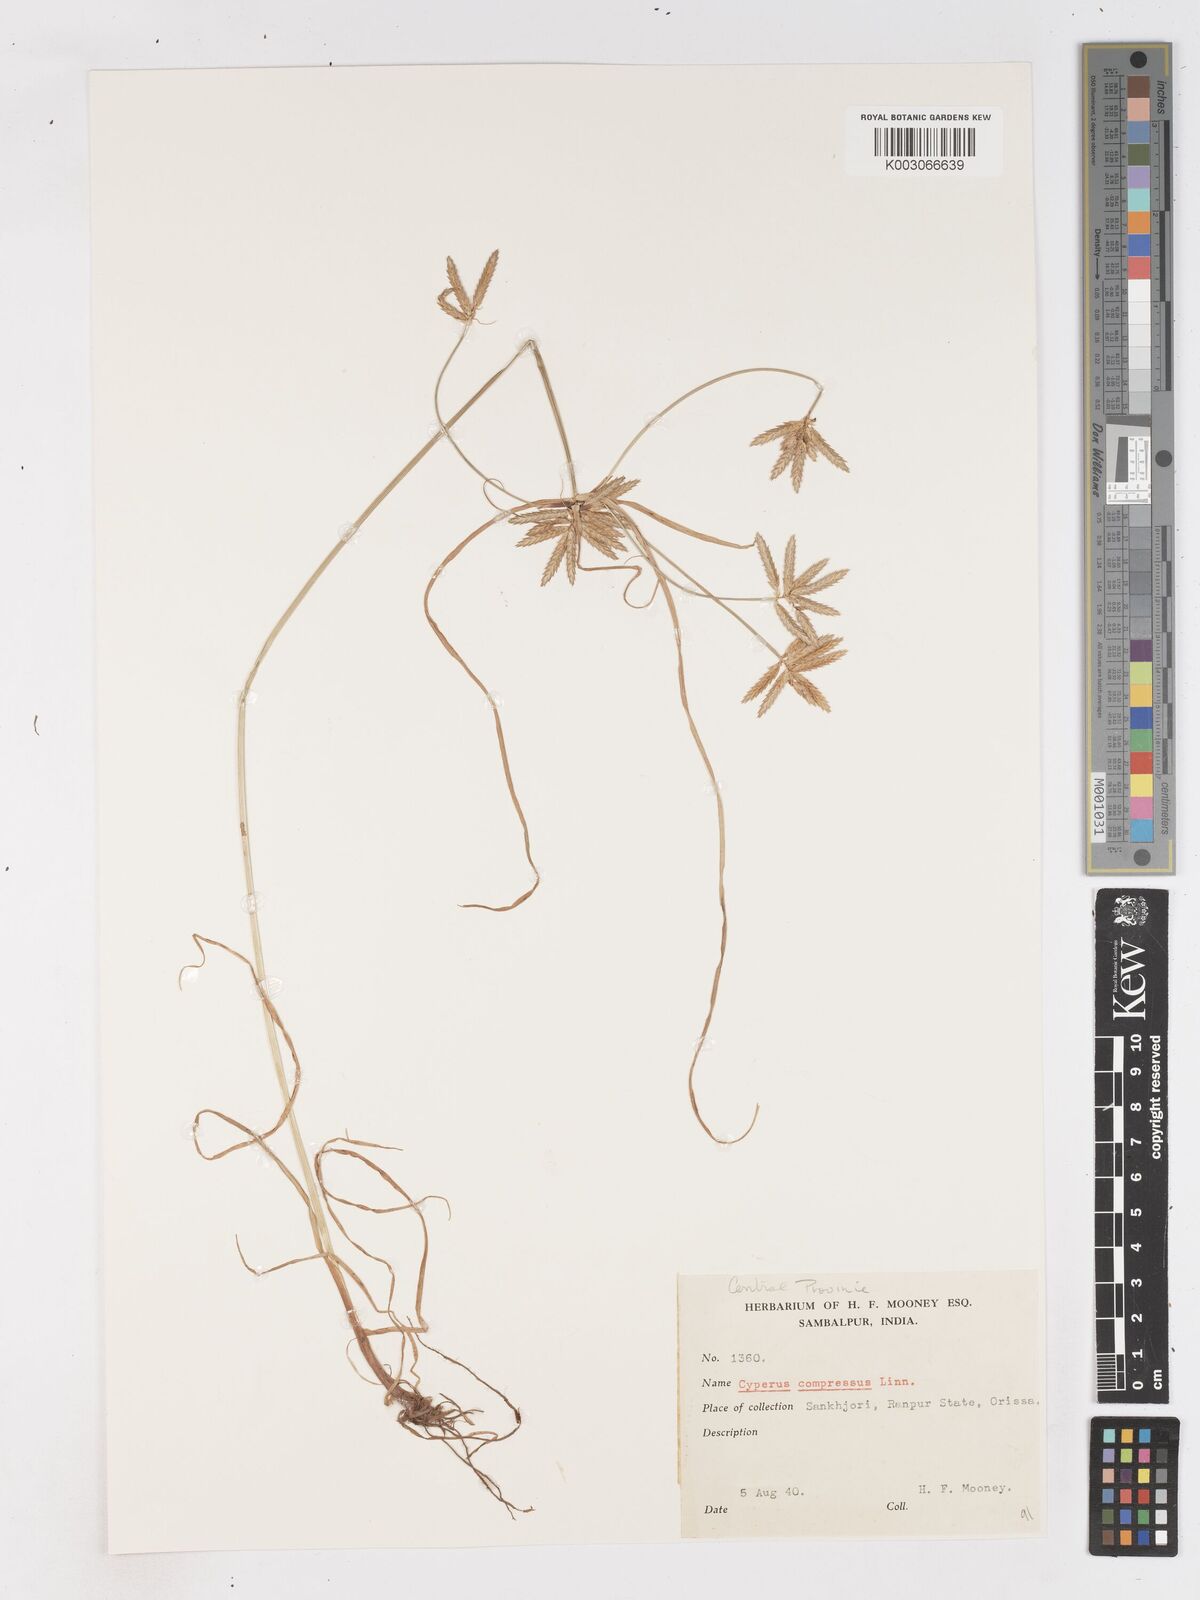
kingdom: Plantae
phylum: Tracheophyta
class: Liliopsida
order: Poales
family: Cyperaceae
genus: Cyperus
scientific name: Cyperus compressus
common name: Poorland flatsedge
